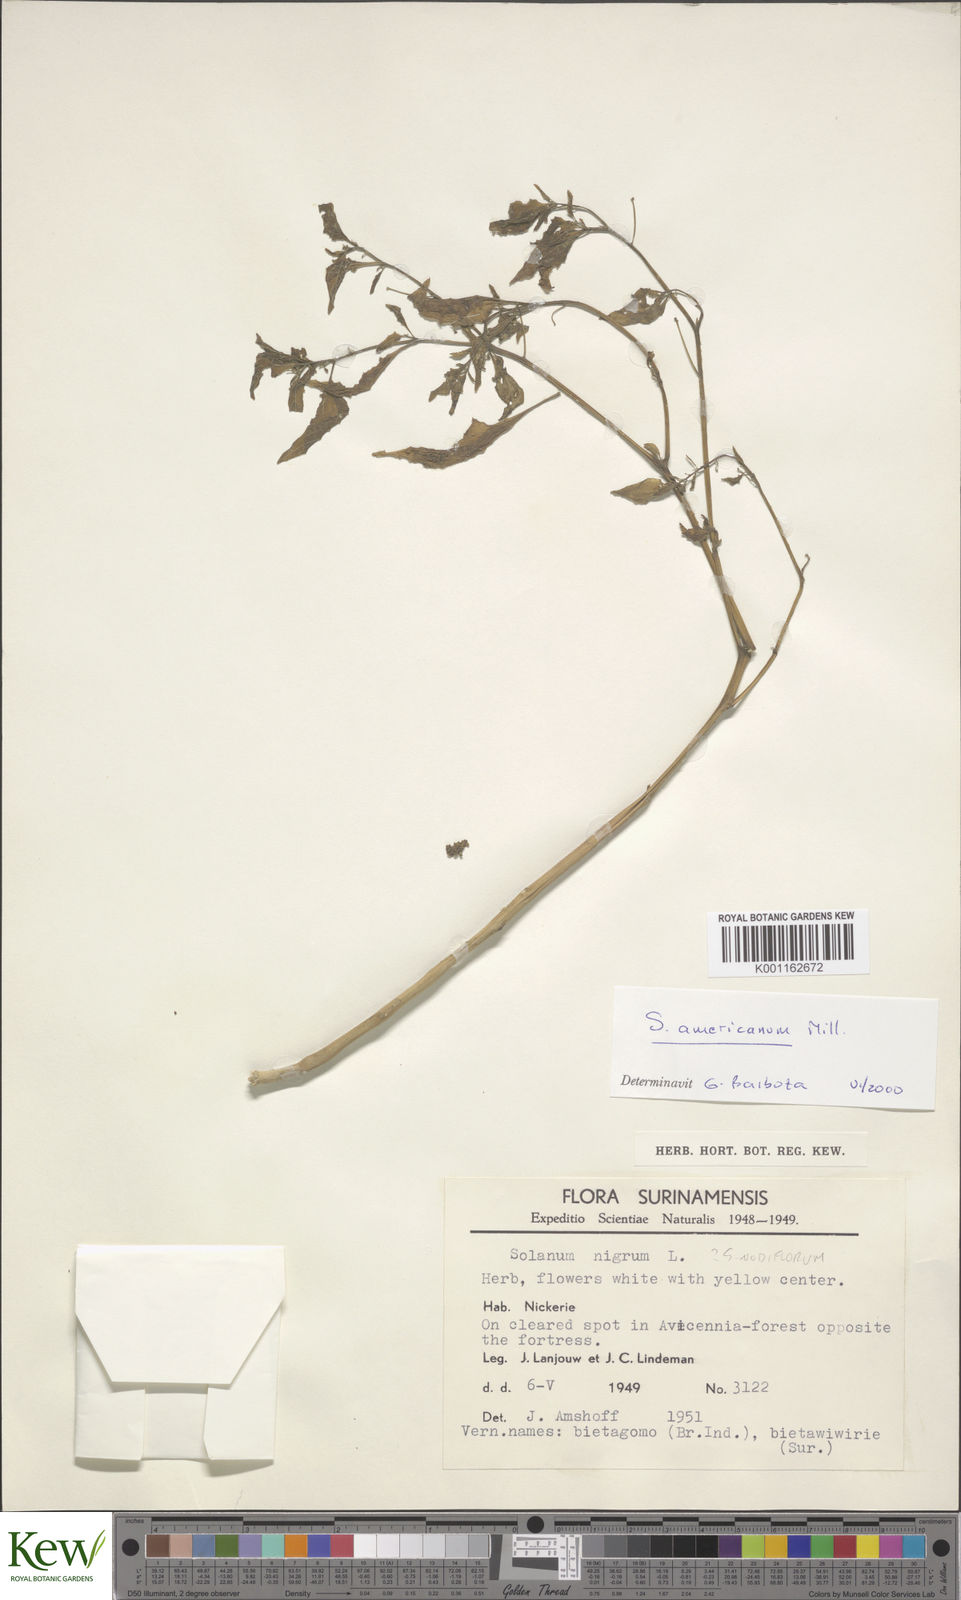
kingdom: Plantae
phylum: Tracheophyta
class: Magnoliopsida
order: Solanales
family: Solanaceae
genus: Solanum
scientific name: Solanum americanum
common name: American black nightshade
